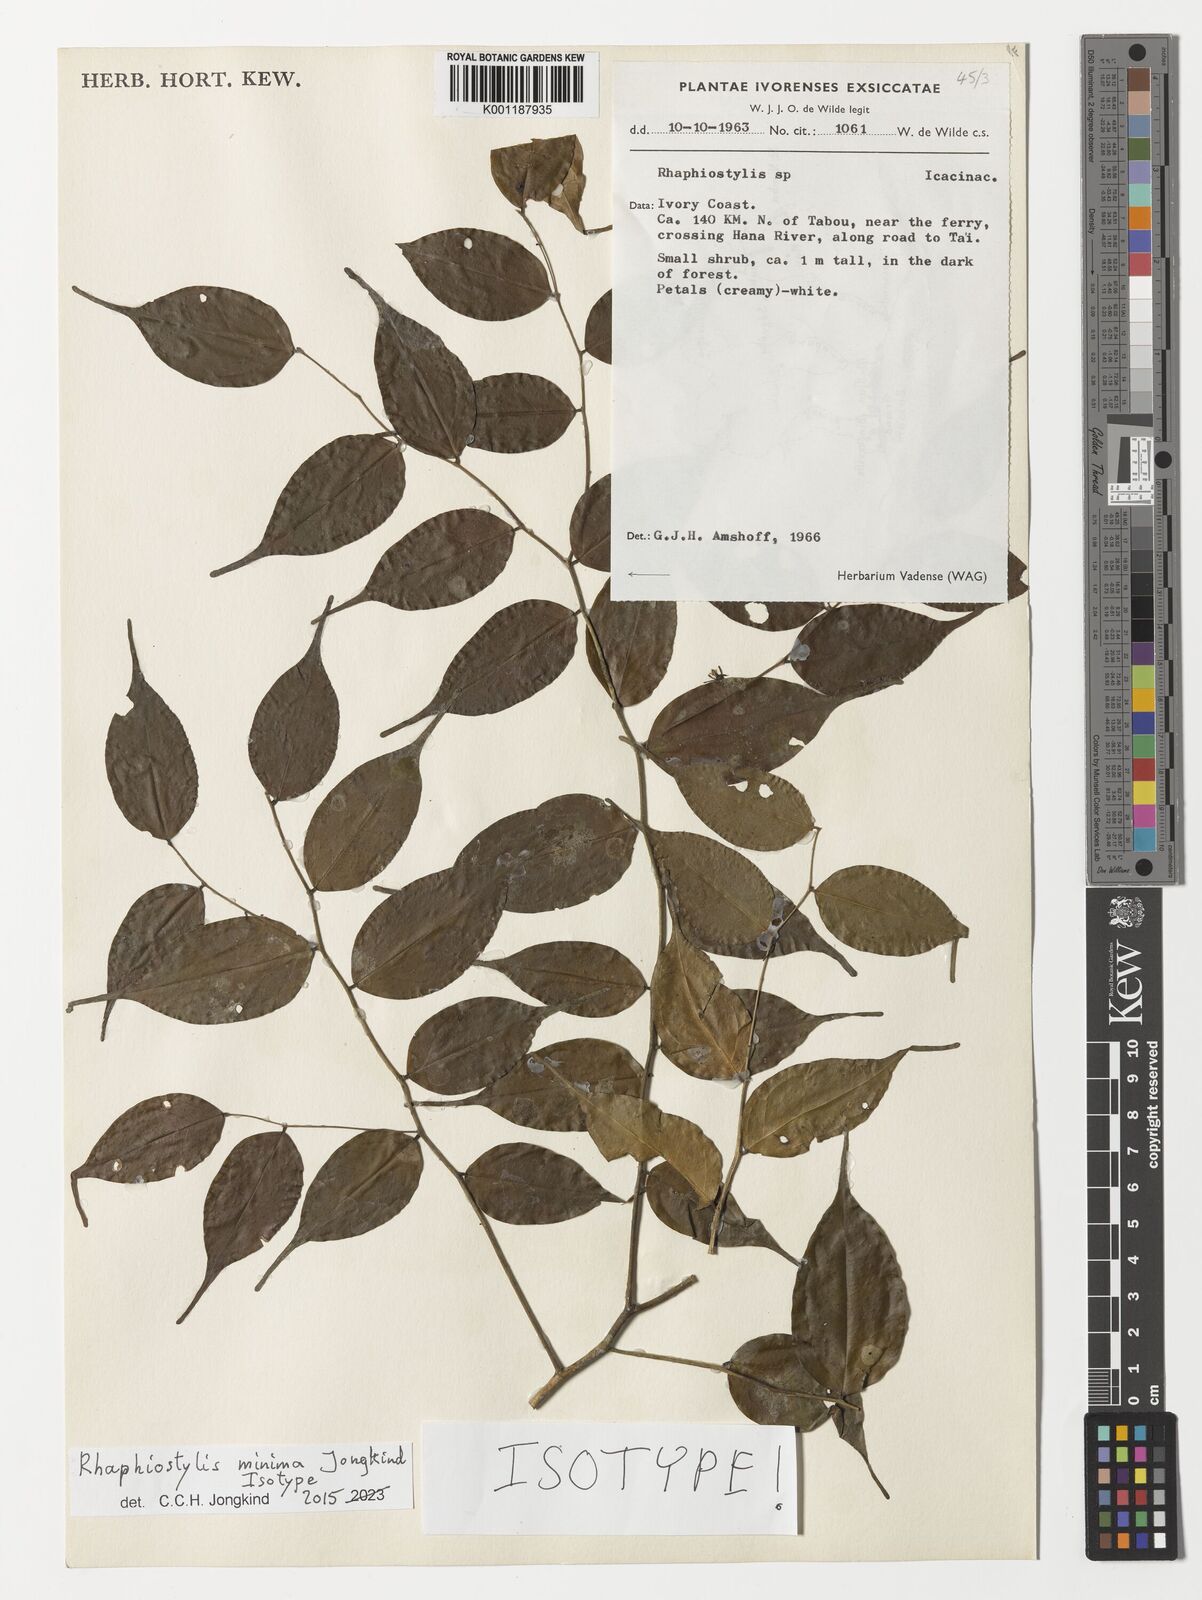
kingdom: Plantae
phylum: Tracheophyta
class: Magnoliopsida
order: Metteniusales
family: Metteniusaceae
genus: Rhaphiostylis
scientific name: Rhaphiostylis minima
